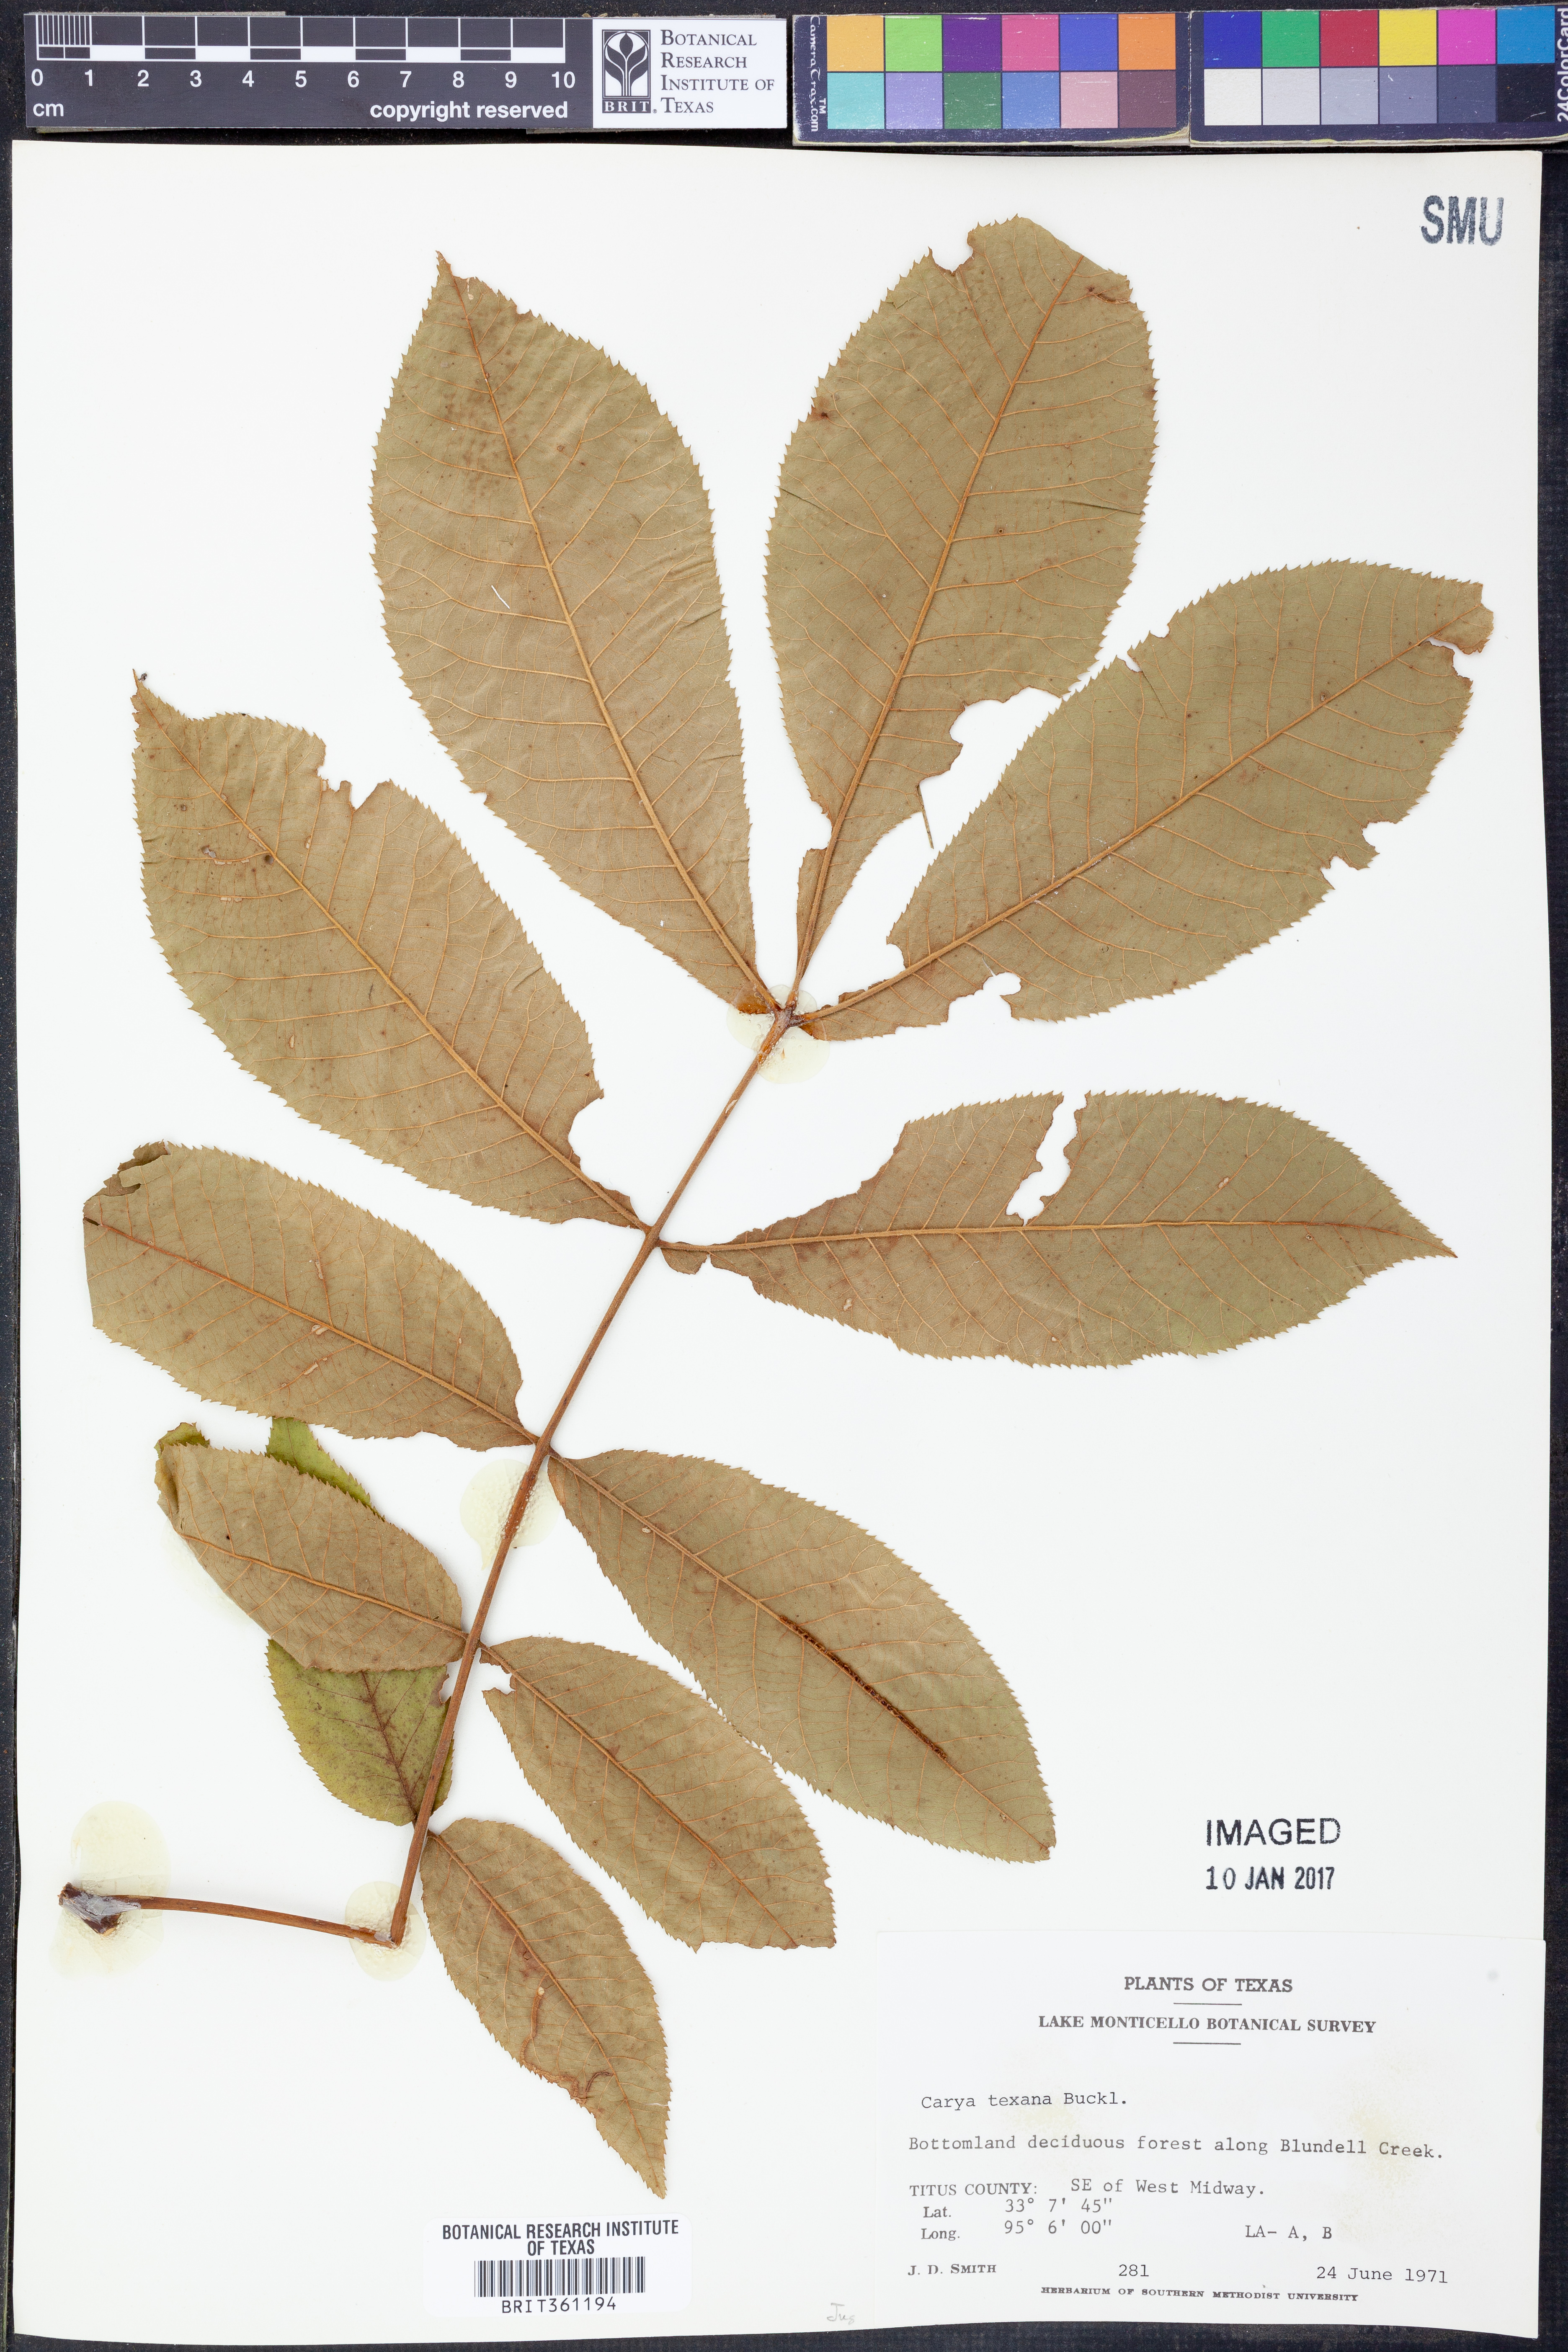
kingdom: Plantae
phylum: Tracheophyta
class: Magnoliopsida
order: Fagales
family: Juglandaceae
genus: Carya
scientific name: Carya texana
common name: Black hickory
